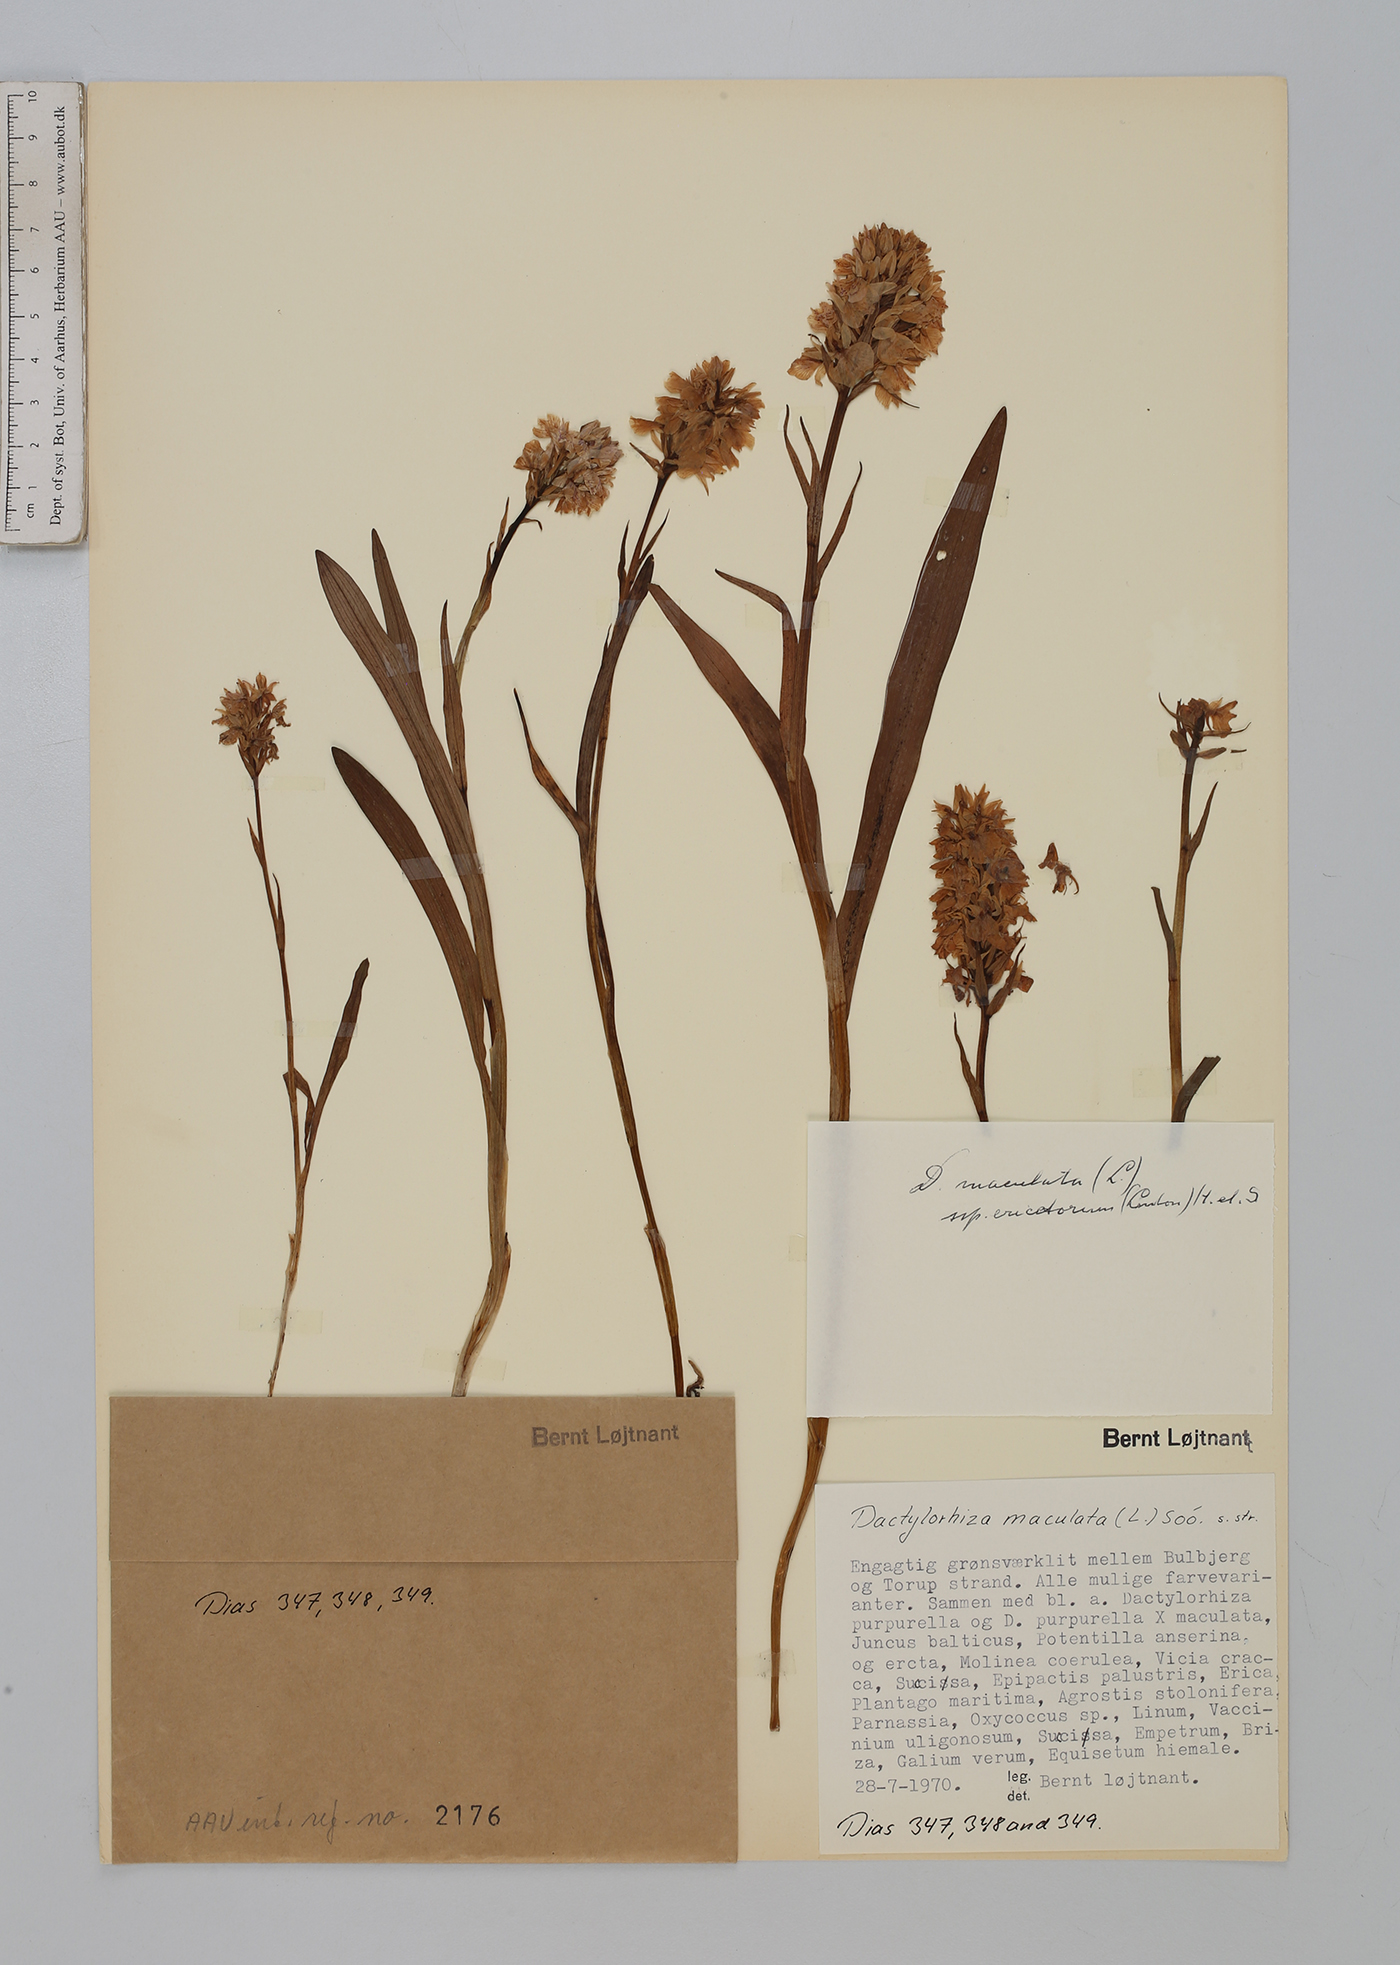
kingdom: Plantae
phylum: Tracheophyta
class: Liliopsida
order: Asparagales
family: Orchidaceae
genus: Dactylorhiza
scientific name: Dactylorhiza maculata
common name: Heath spotted-orchid
